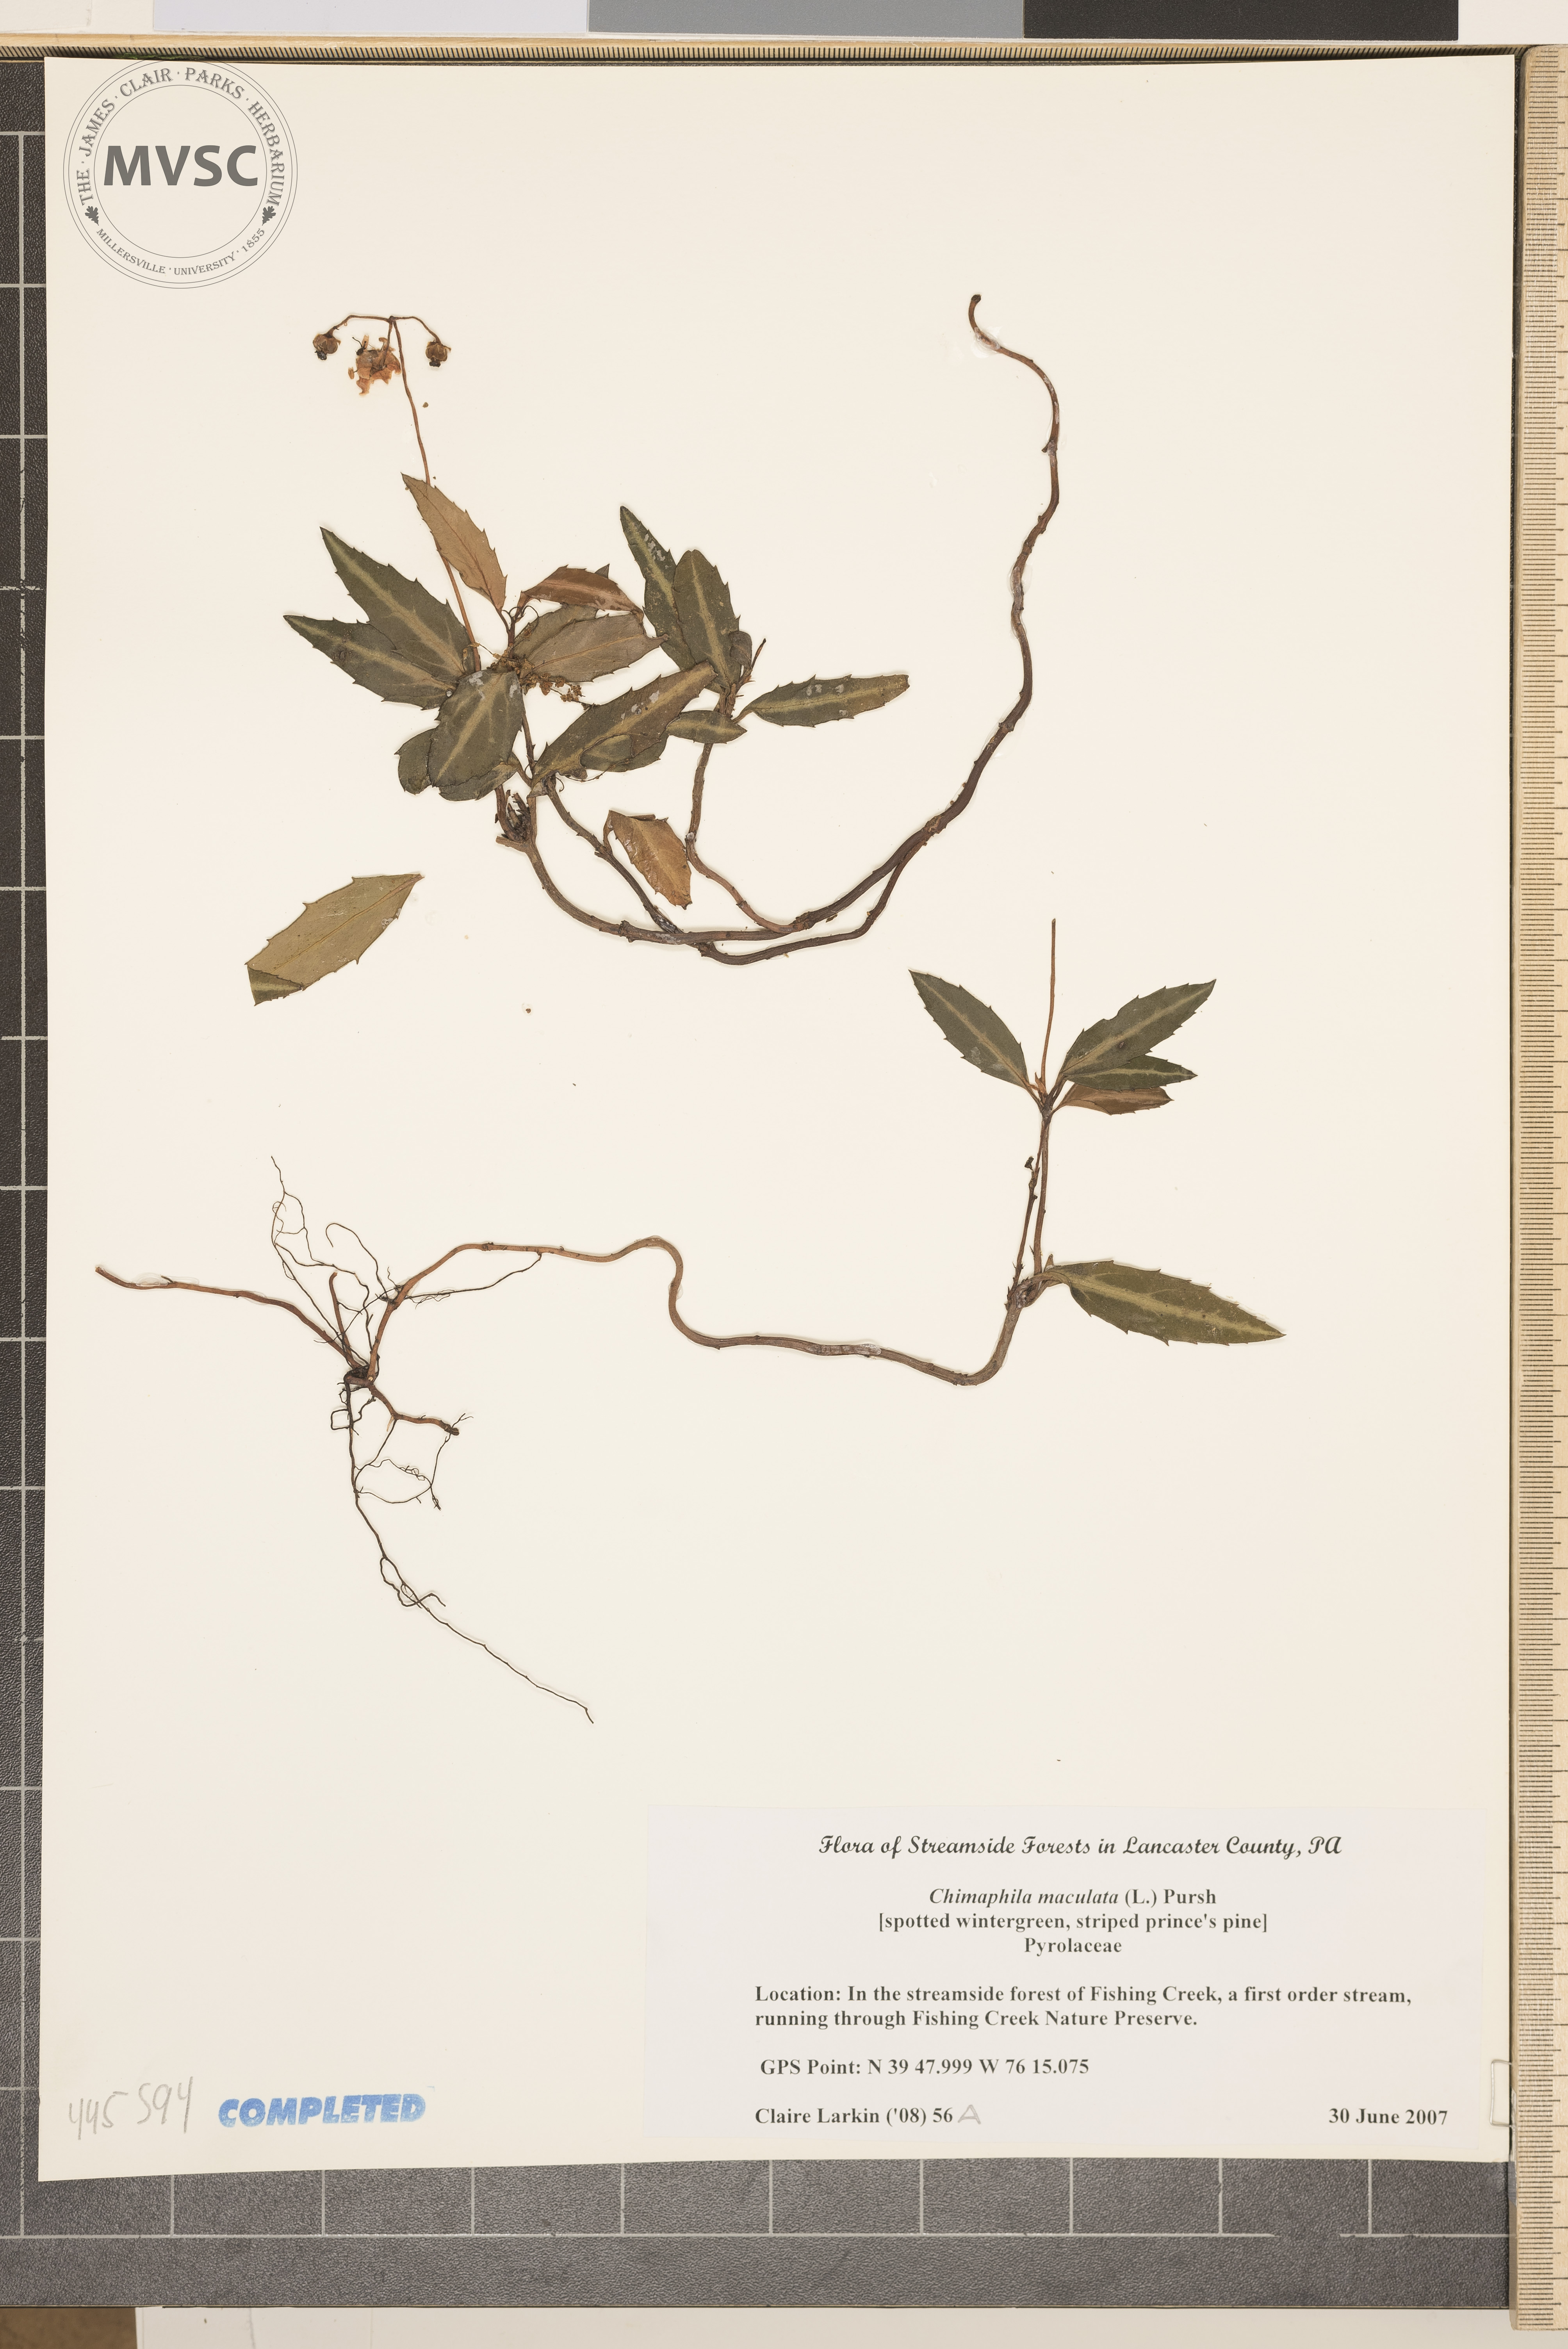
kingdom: Plantae
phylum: Tracheophyta
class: Magnoliopsida
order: Ericales
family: Ericaceae
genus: Chimaphila
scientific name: Chimaphila maculata
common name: Spotted pipsissewa
